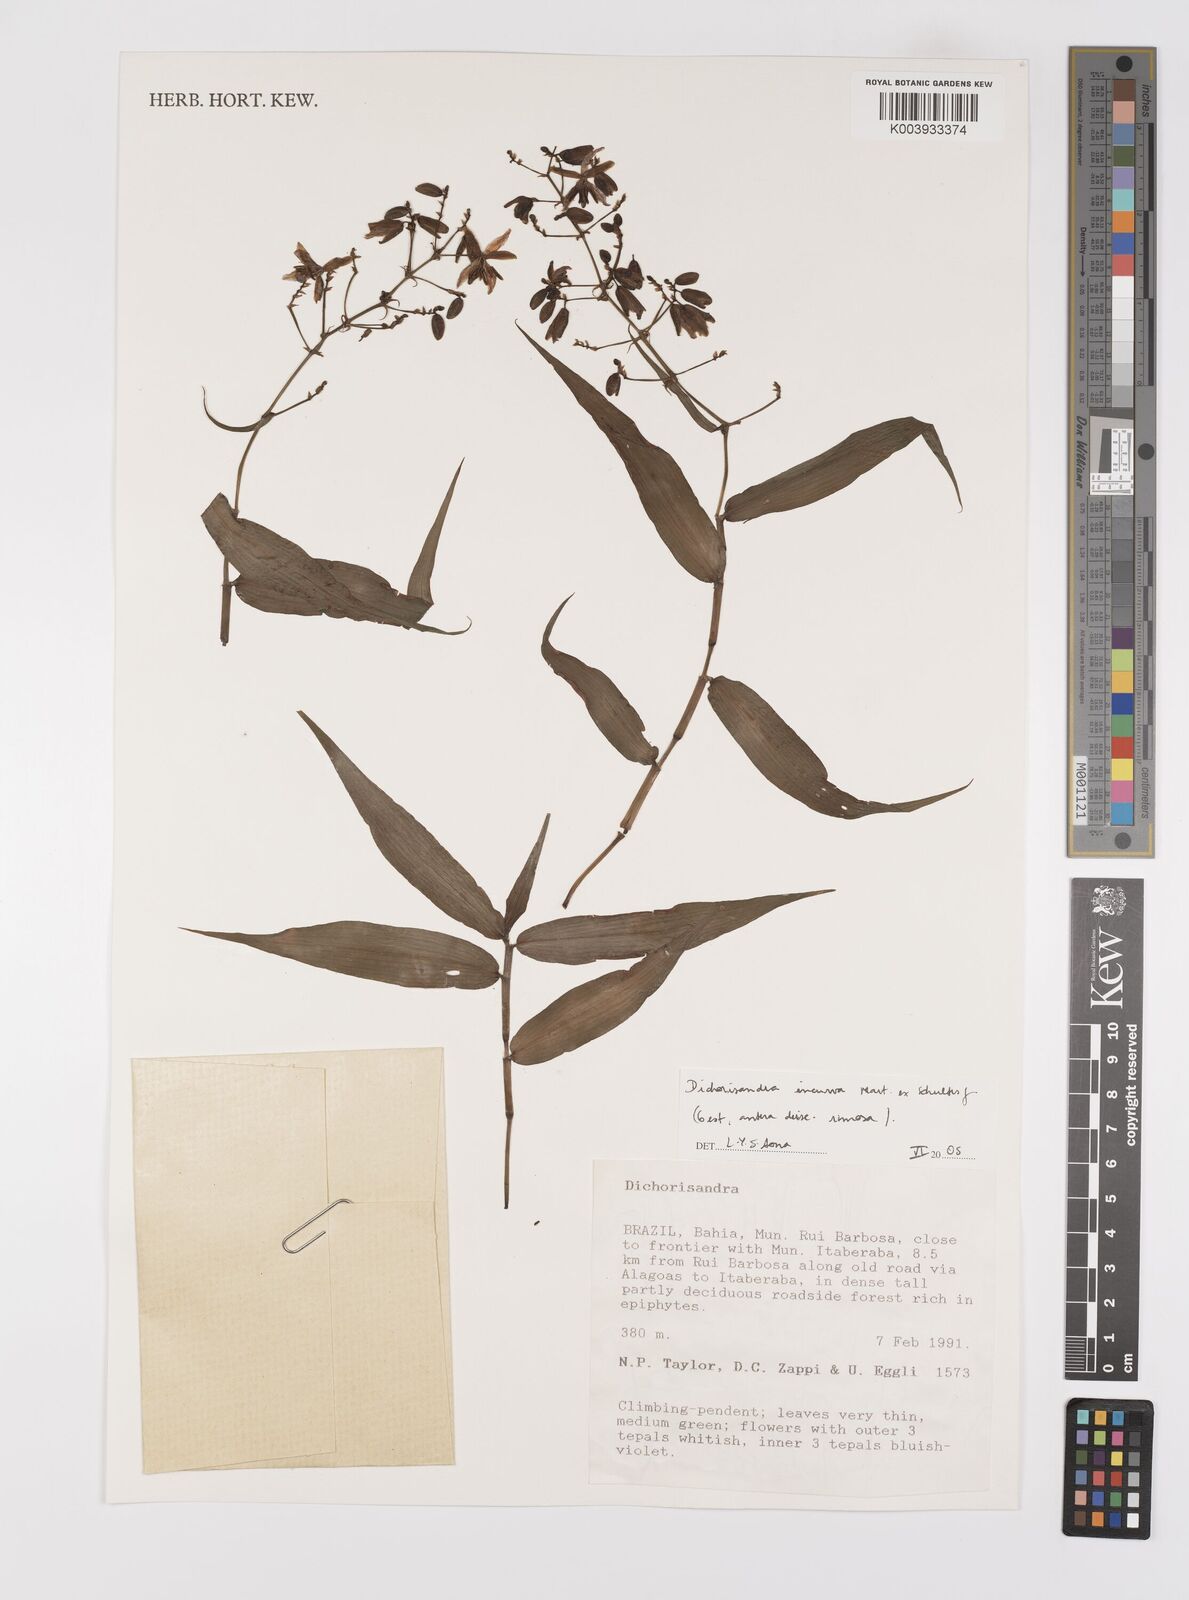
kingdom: Plantae
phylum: Tracheophyta
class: Liliopsida
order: Commelinales
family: Commelinaceae
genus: Dichorisandra
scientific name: Dichorisandra incurva
